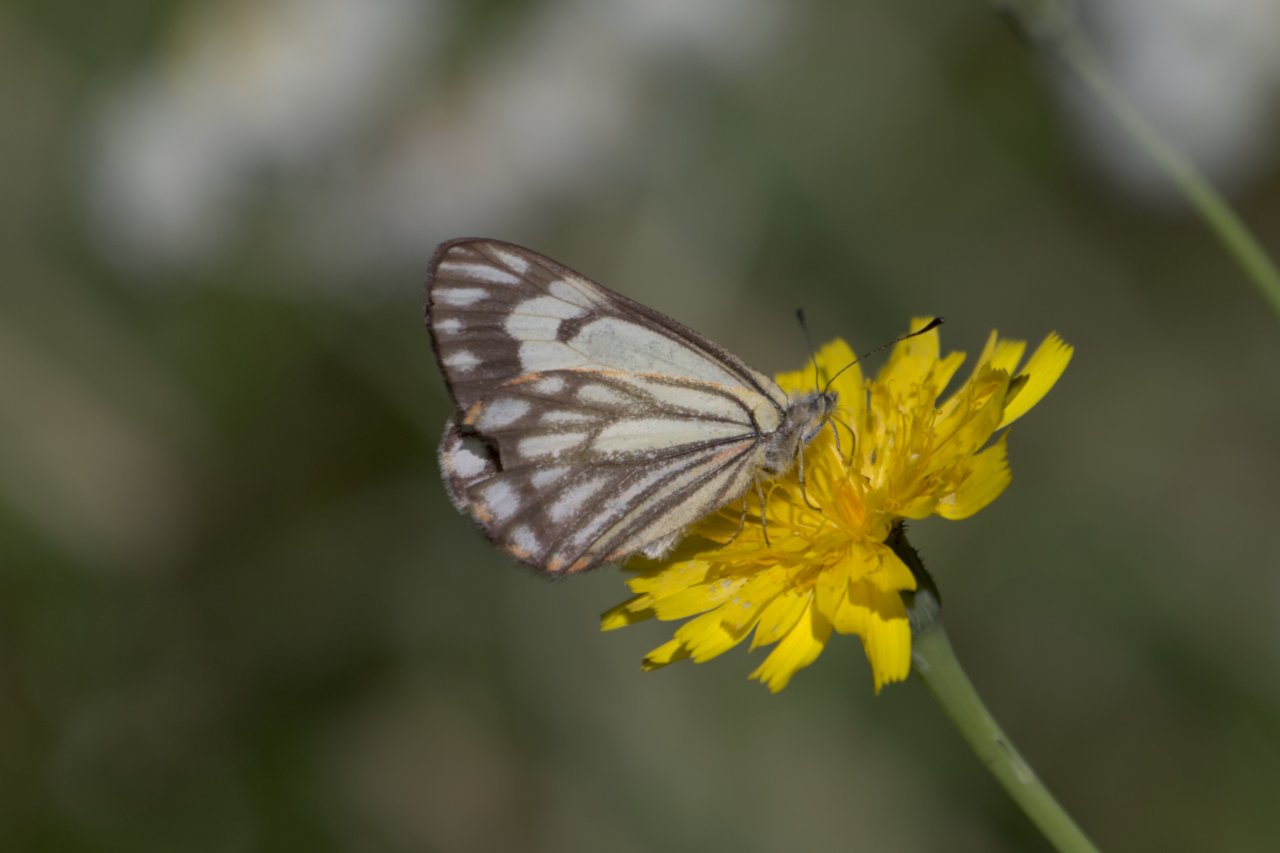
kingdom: Animalia
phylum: Arthropoda
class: Insecta
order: Lepidoptera
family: Pieridae
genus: Neophasia
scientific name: Neophasia menapia
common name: Pine White
